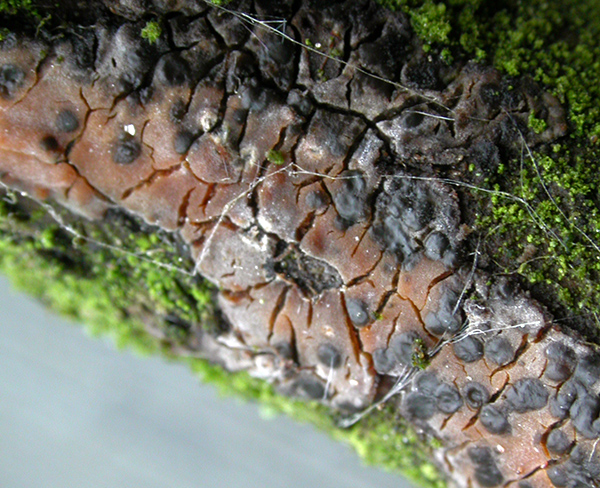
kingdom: Fungi
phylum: Basidiomycota
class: Tremellomycetes
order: Tremellales
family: Tremellaceae
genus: Tremella
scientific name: Tremella versicolor
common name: voksskind-bævresvamp
